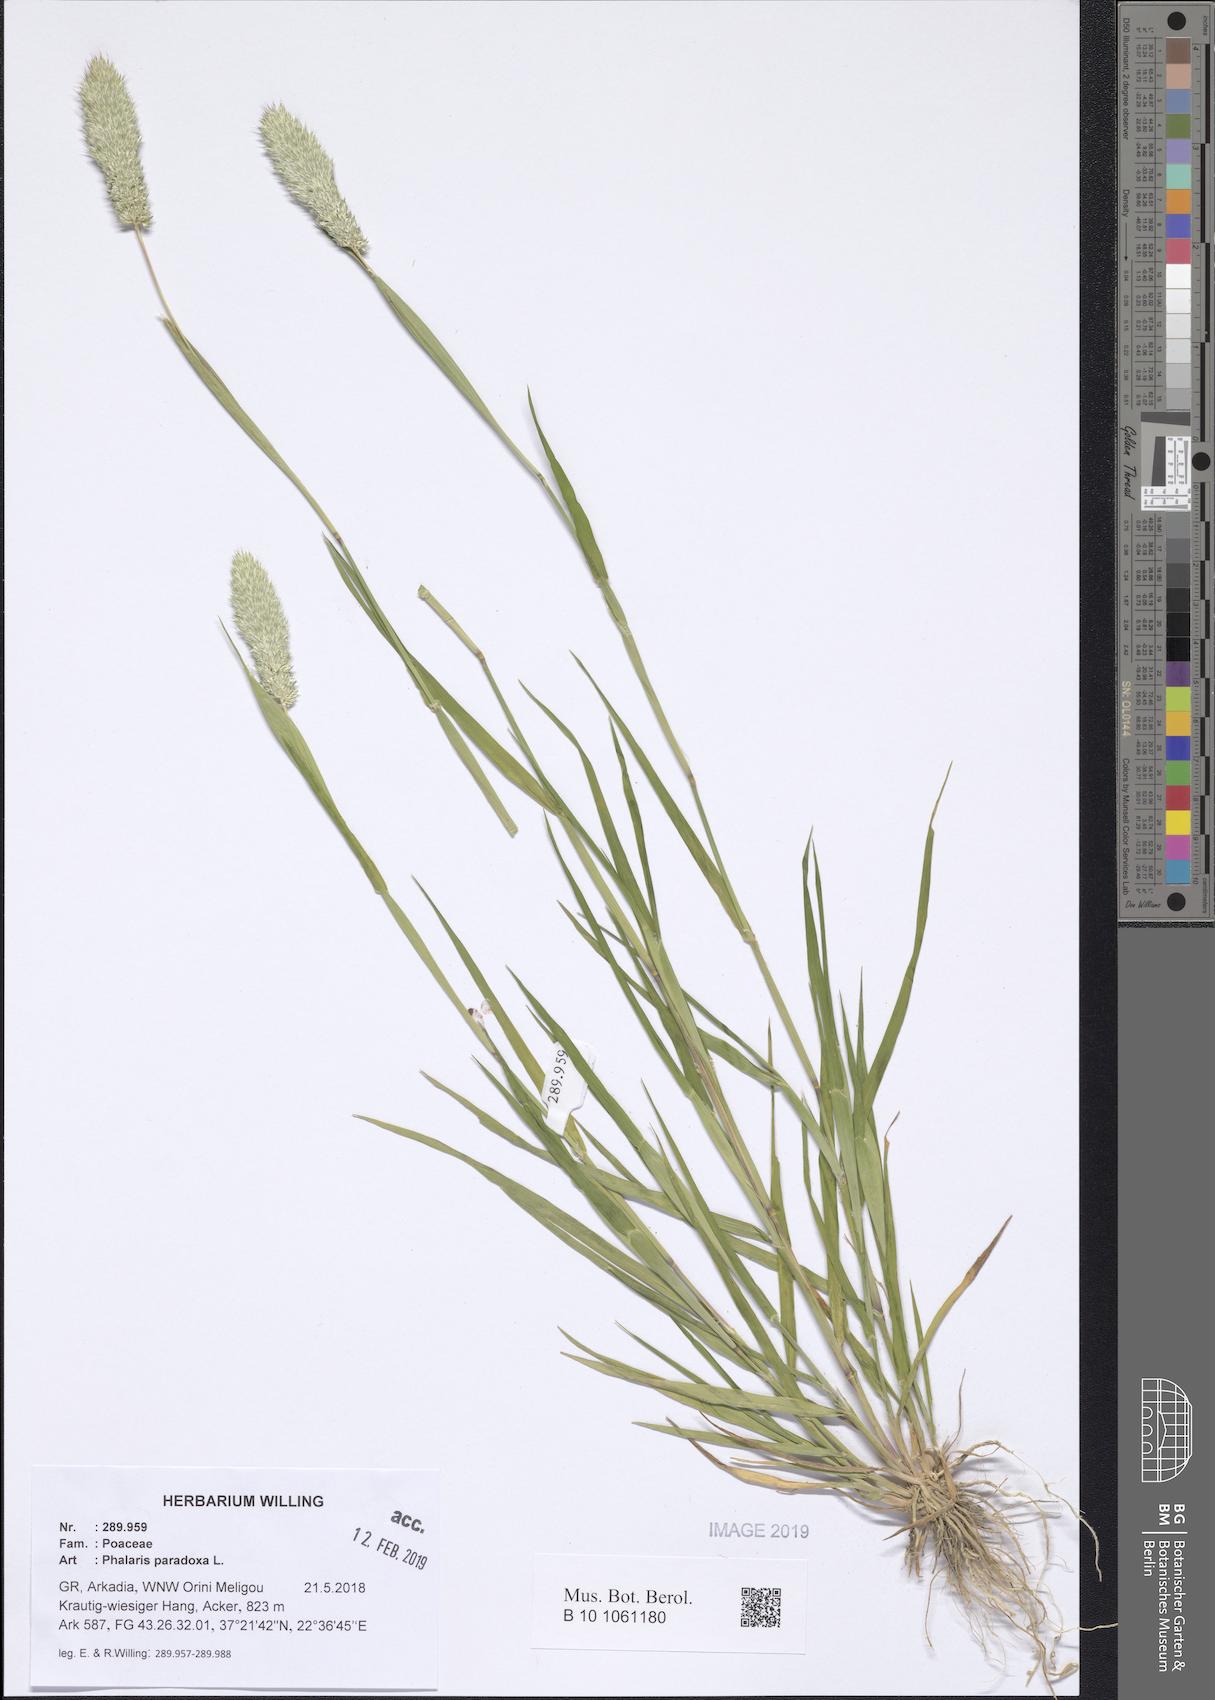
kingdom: Plantae
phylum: Tracheophyta
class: Liliopsida
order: Poales
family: Poaceae
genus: Phalaris
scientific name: Phalaris paradoxa
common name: Awned canary-grass
